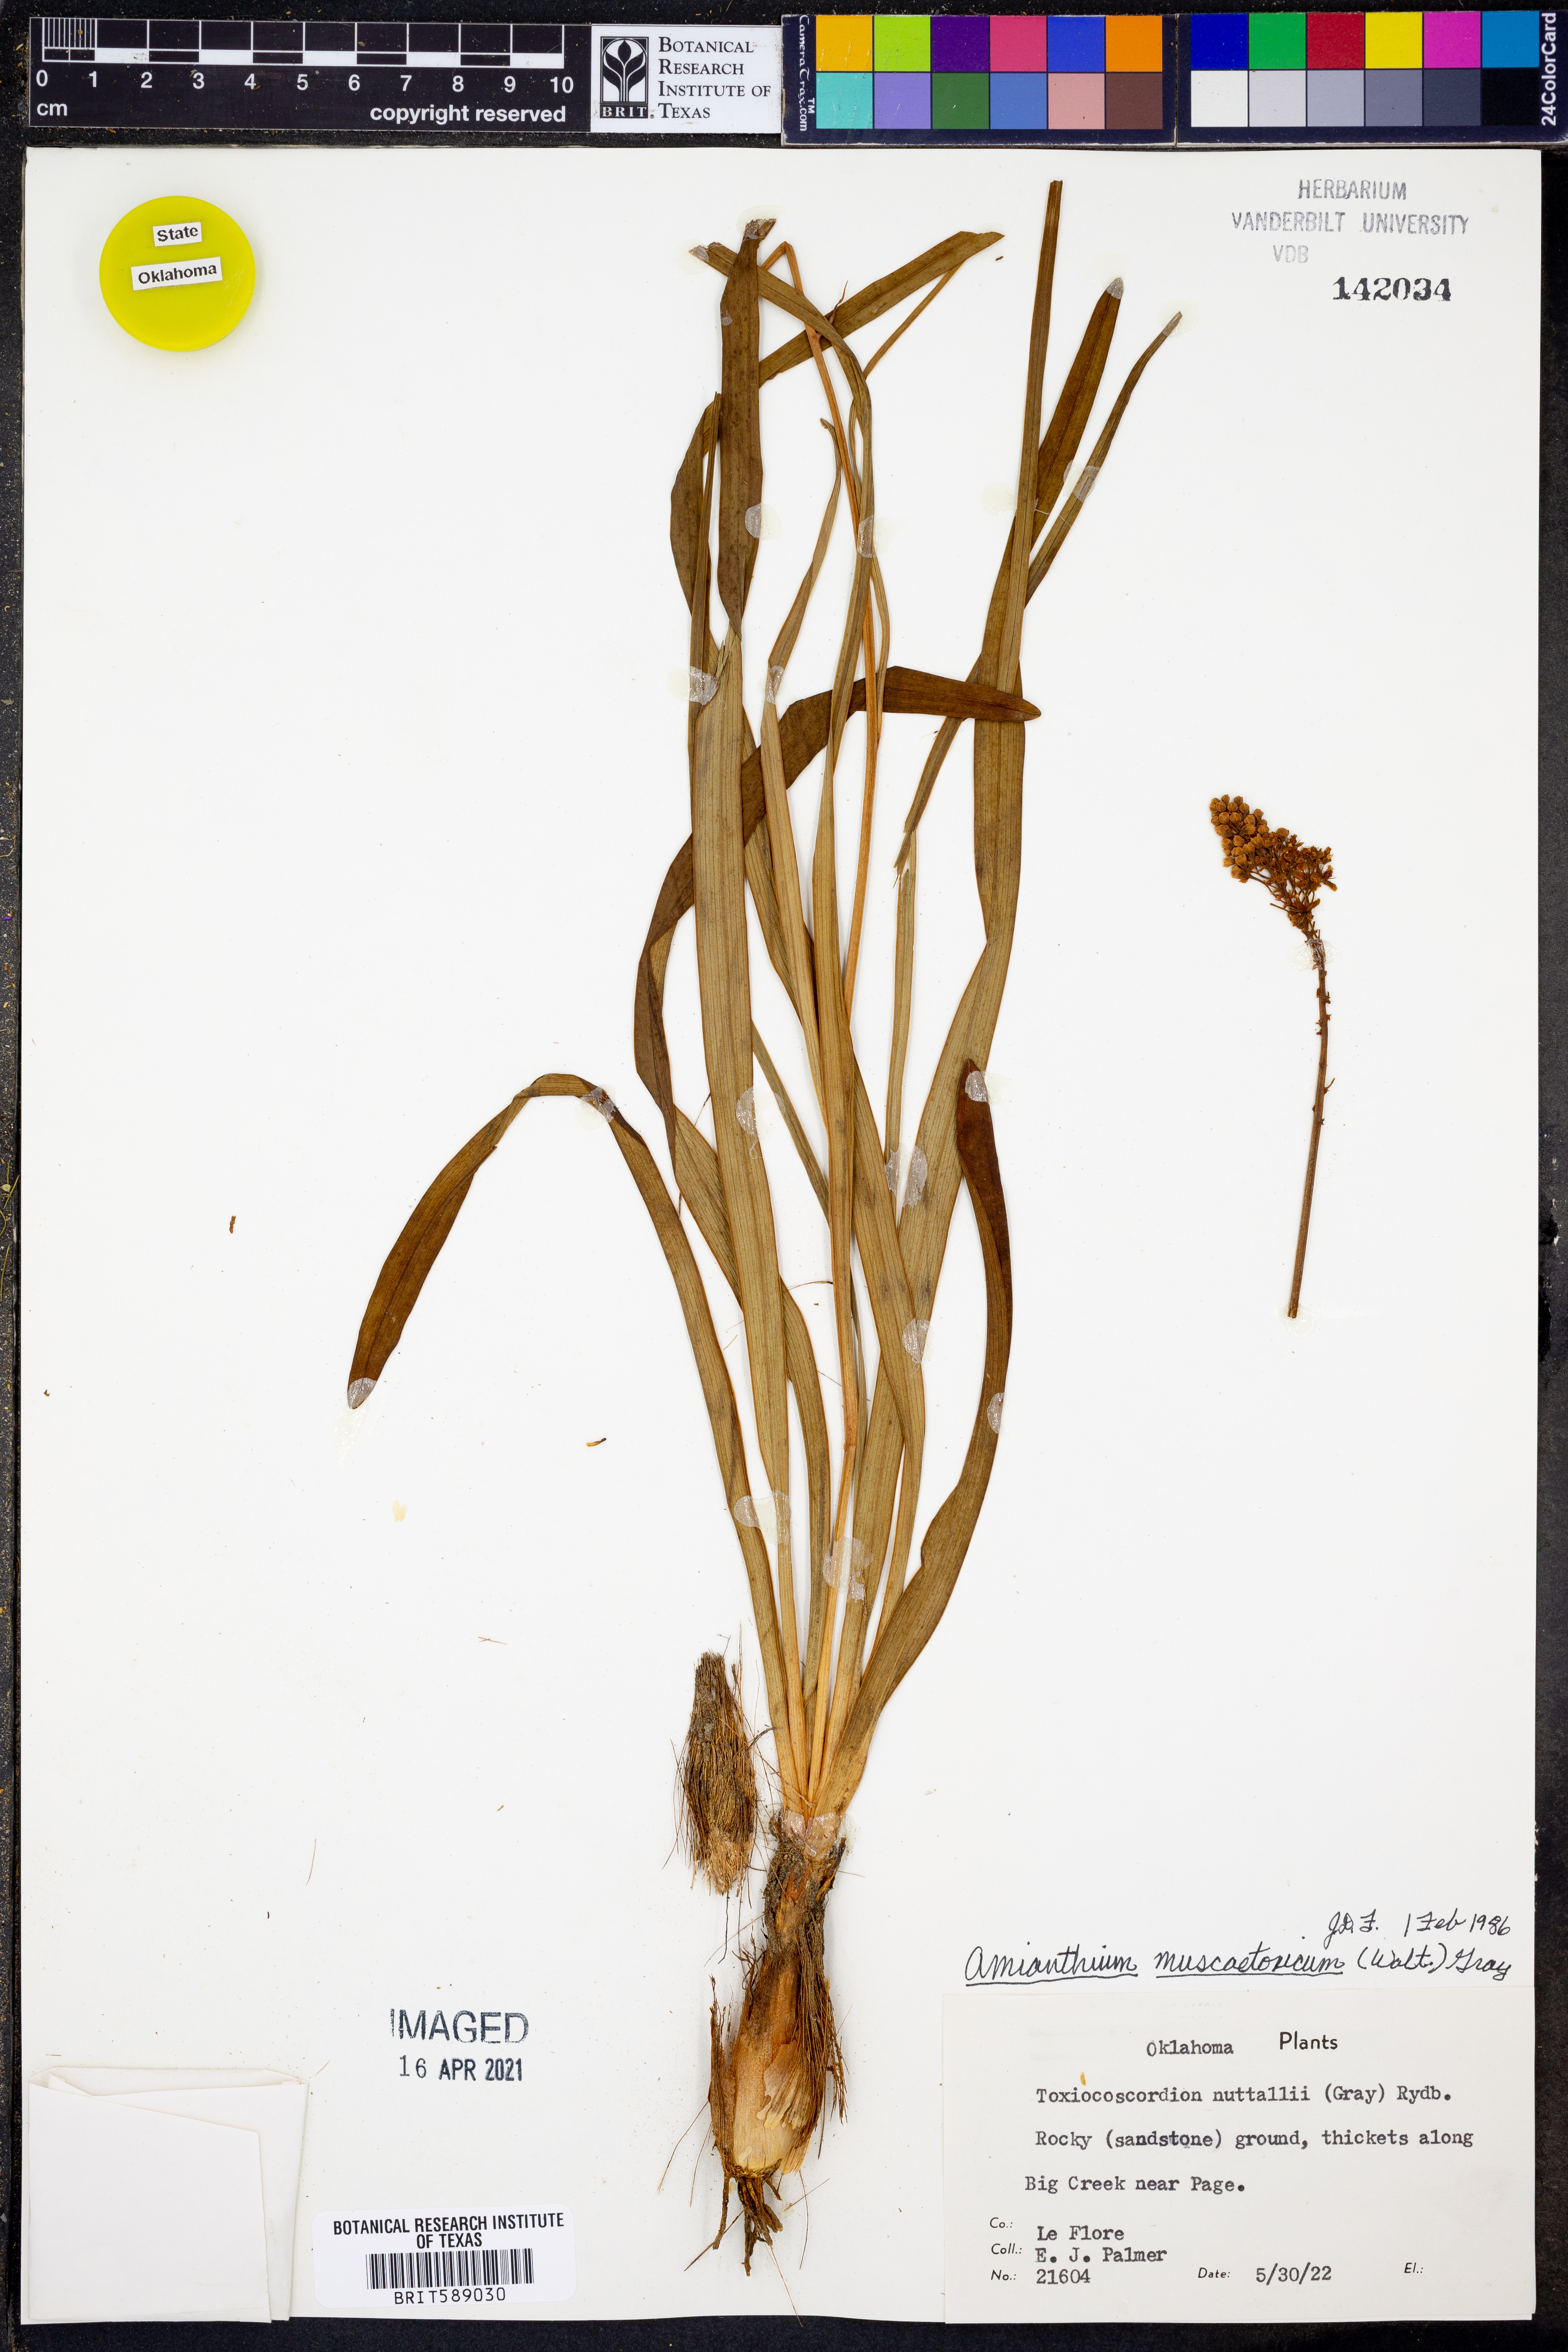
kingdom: Plantae
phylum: Tracheophyta
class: Liliopsida
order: Liliales
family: Melanthiaceae
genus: Amianthium
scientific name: Amianthium muscitoxicum
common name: Fly-poison
